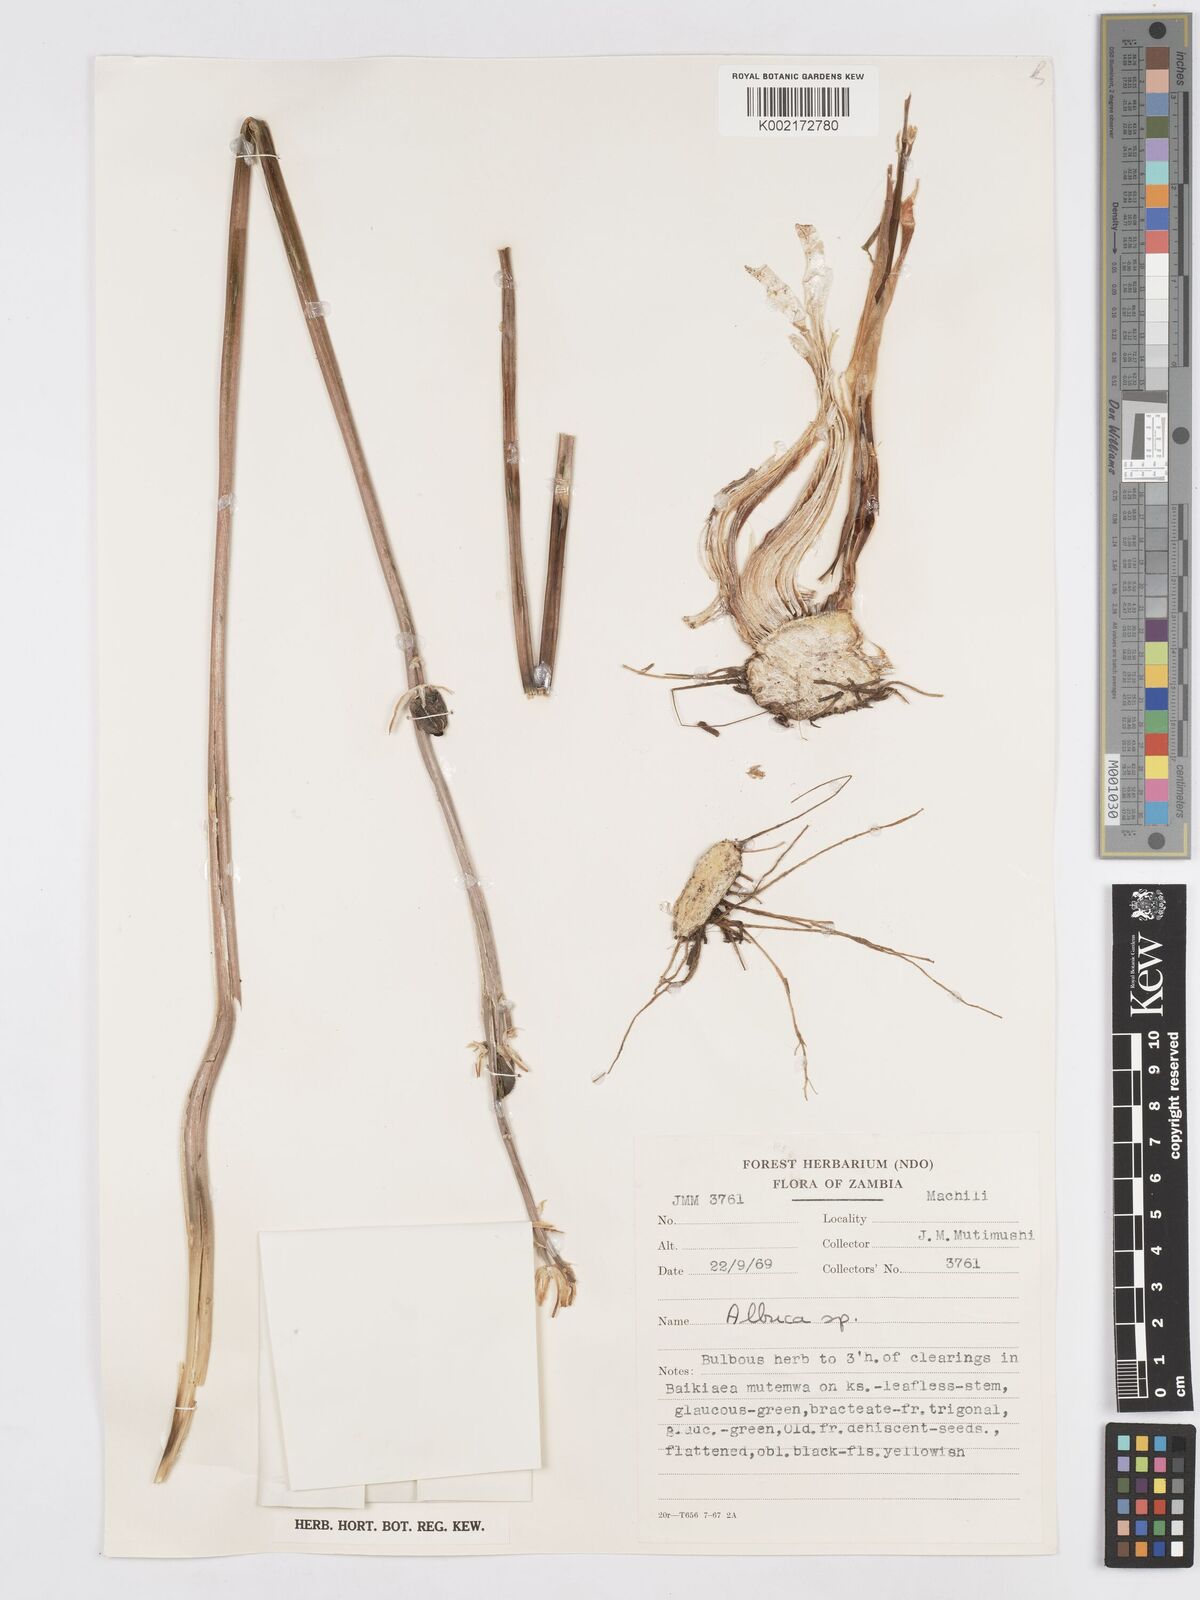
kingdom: Plantae
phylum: Tracheophyta
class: Liliopsida
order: Asparagales
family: Asparagaceae
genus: Albuca
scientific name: Albuca
